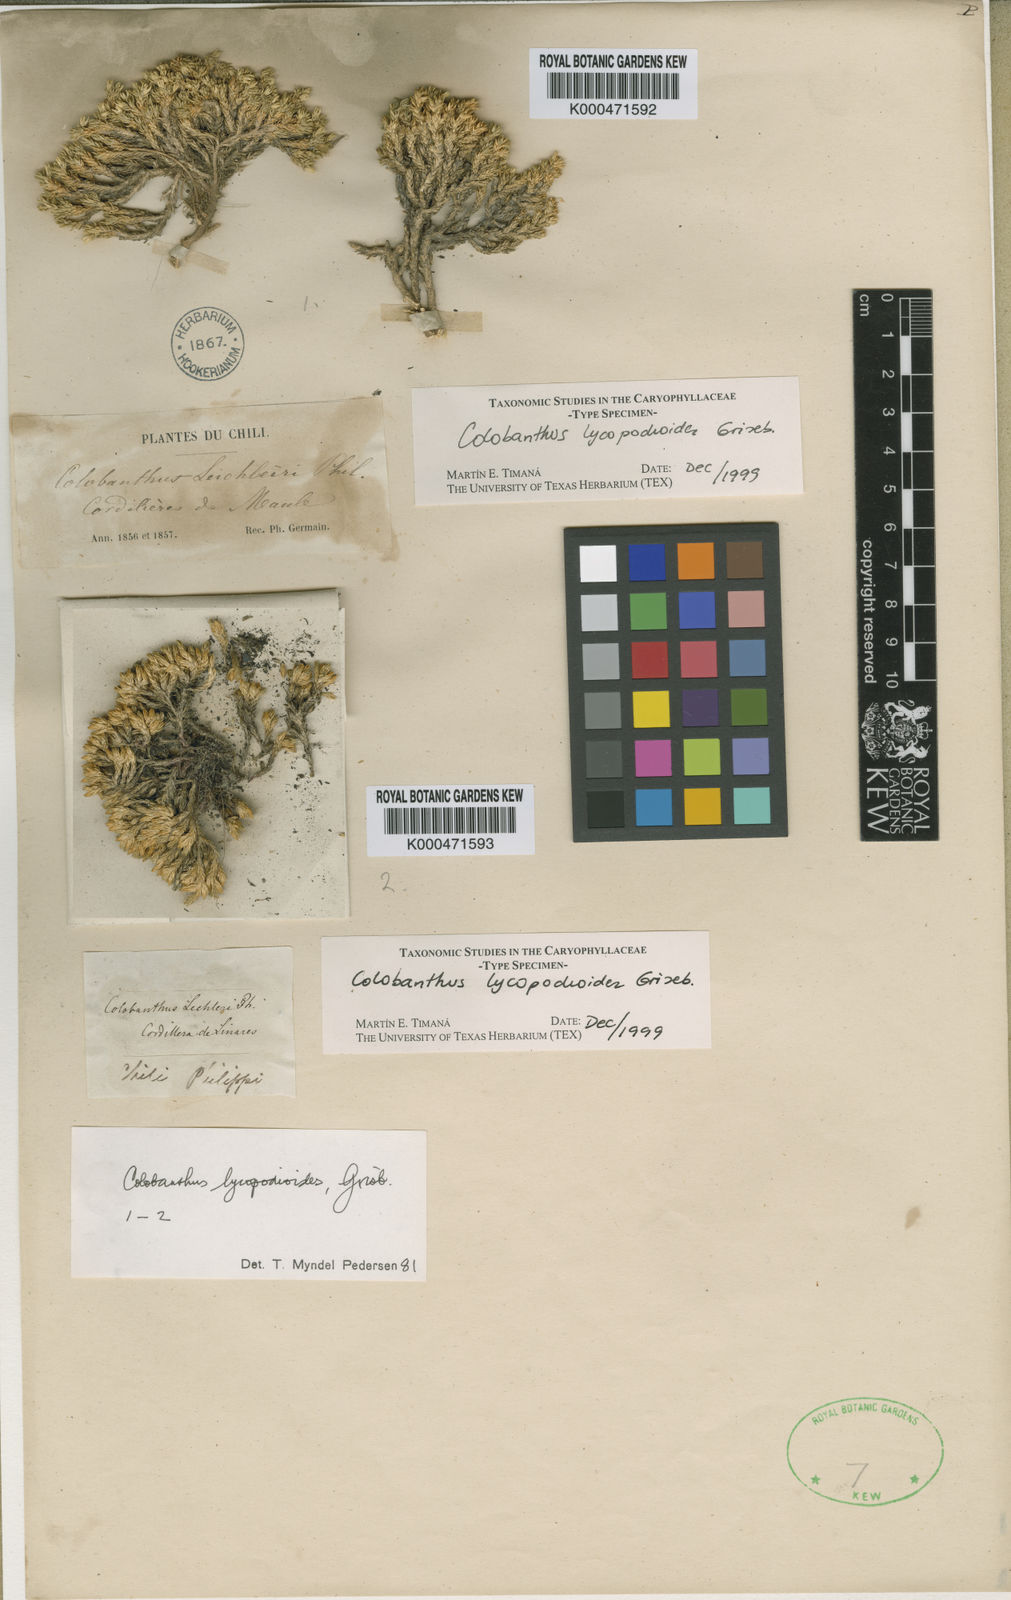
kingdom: Plantae
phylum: Tracheophyta
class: Magnoliopsida
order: Caryophyllales
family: Caryophyllaceae
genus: Colobanthus
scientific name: Colobanthus
